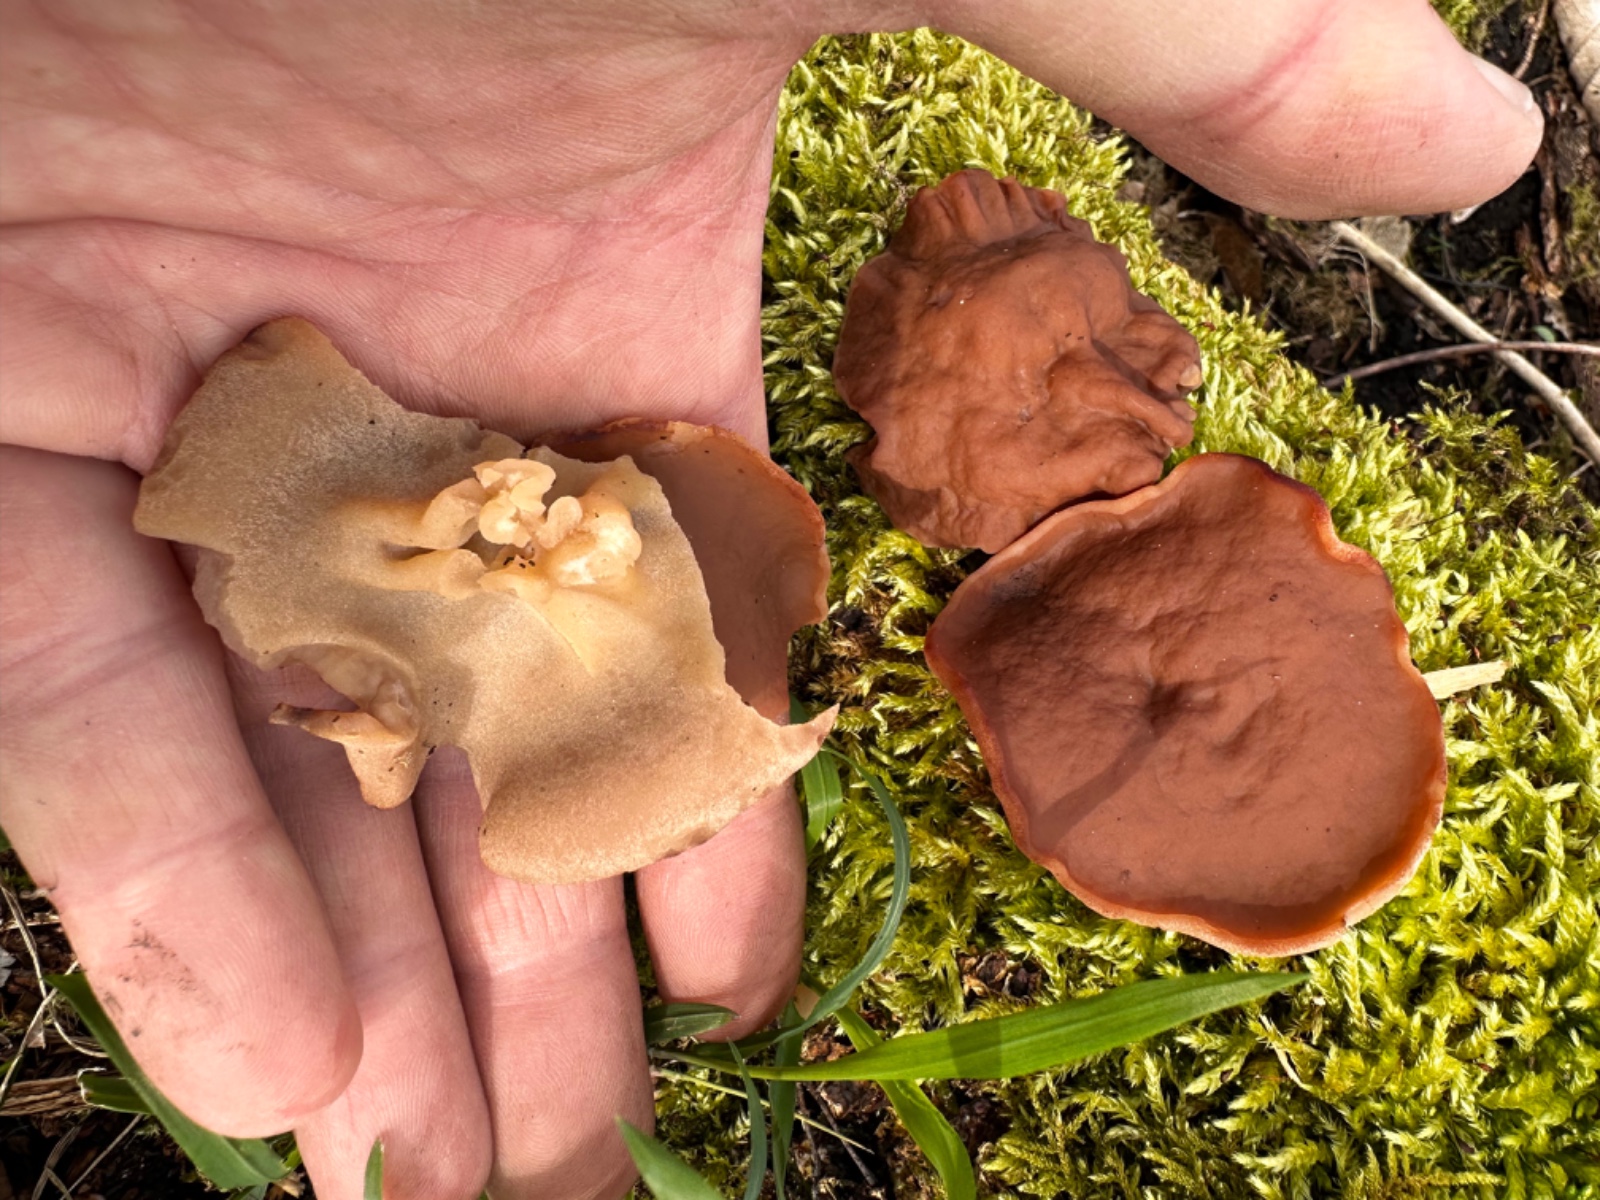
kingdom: Fungi
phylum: Ascomycota
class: Pezizomycetes
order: Pezizales
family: Discinaceae
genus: Discina
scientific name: Discina ancilis
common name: udbredt stenmorkel
